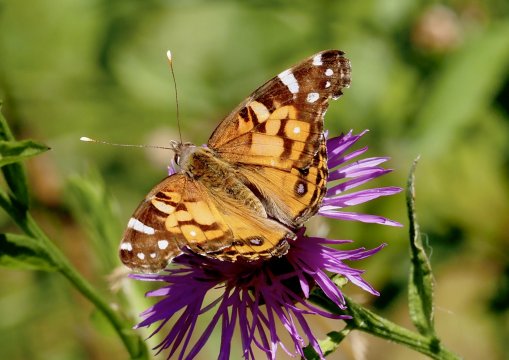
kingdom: Animalia
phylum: Arthropoda
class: Insecta
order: Lepidoptera
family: Nymphalidae
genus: Vanessa
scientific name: Vanessa virginiensis
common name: American Lady
